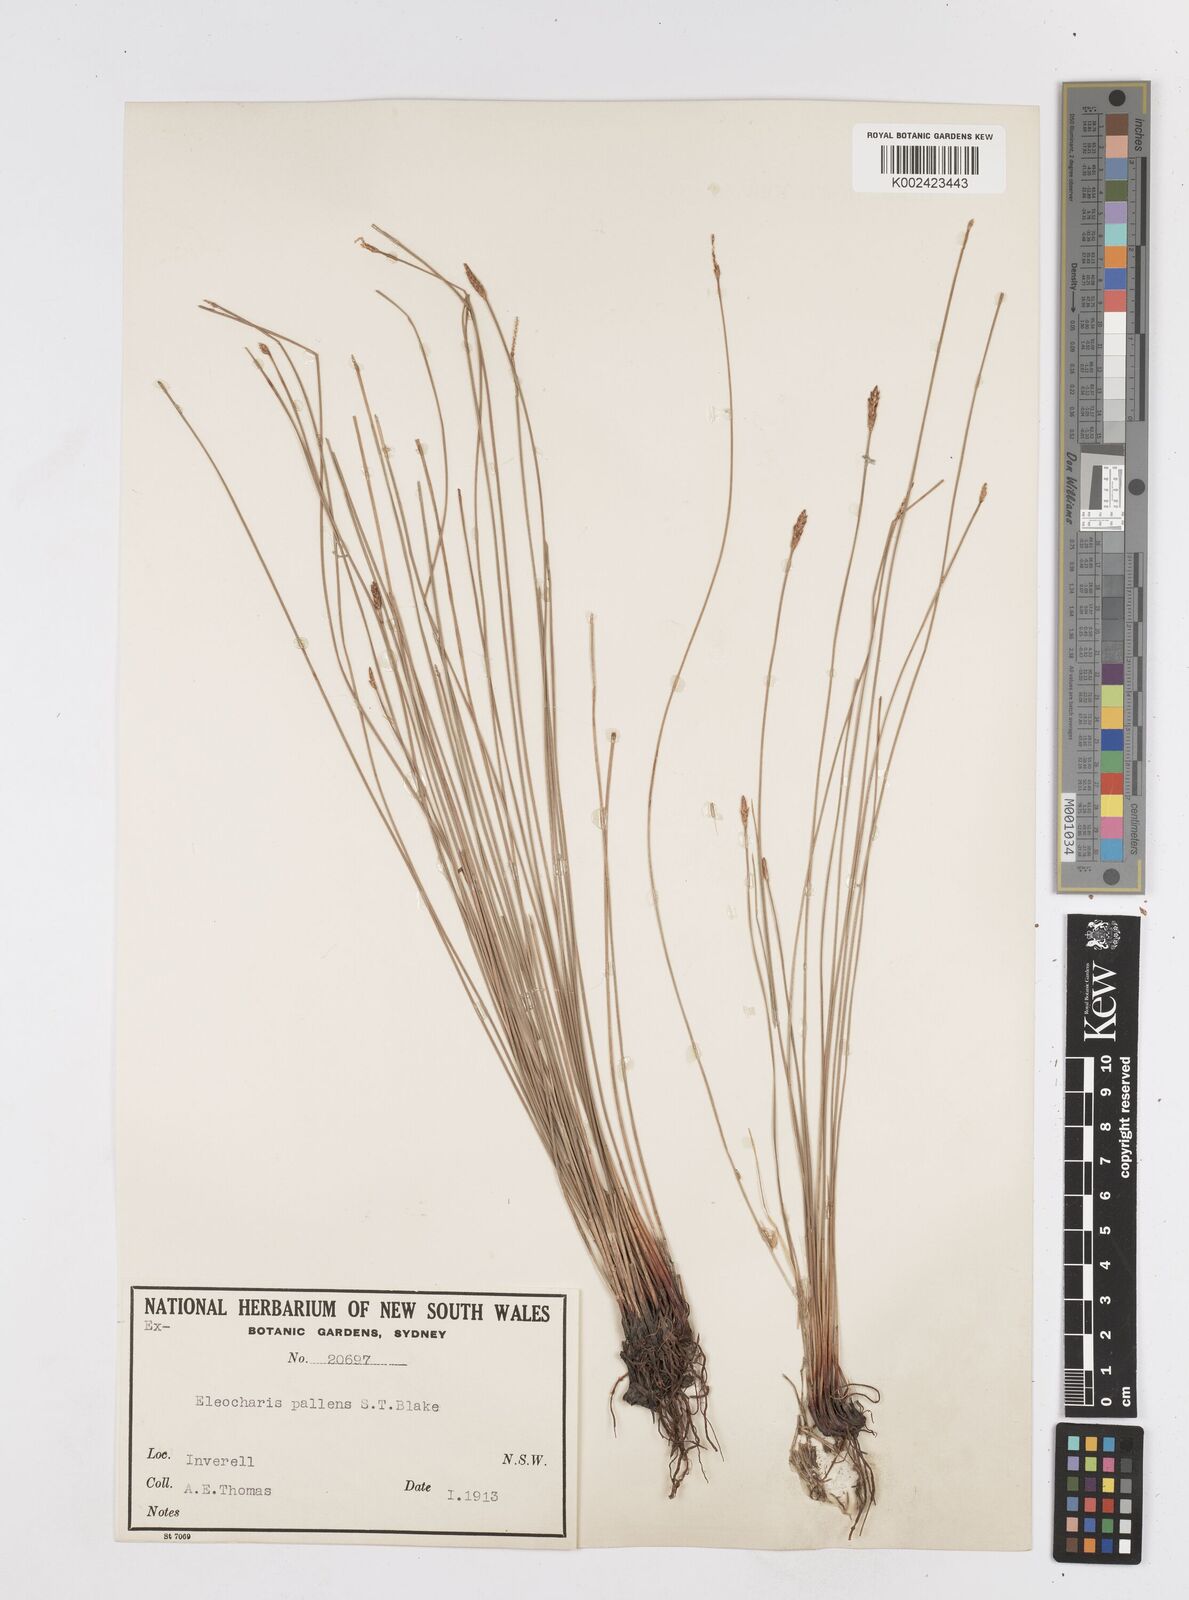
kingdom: Plantae
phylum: Tracheophyta
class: Liliopsida
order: Poales
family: Cyperaceae
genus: Eleocharis
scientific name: Eleocharis acuta
